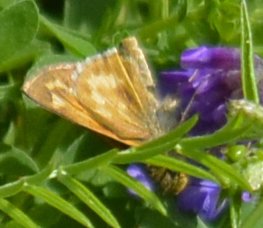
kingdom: Animalia
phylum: Arthropoda
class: Insecta
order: Lepidoptera
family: Hesperiidae
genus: Hesperia
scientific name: Hesperia sassacus
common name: Sassacus Skipper
